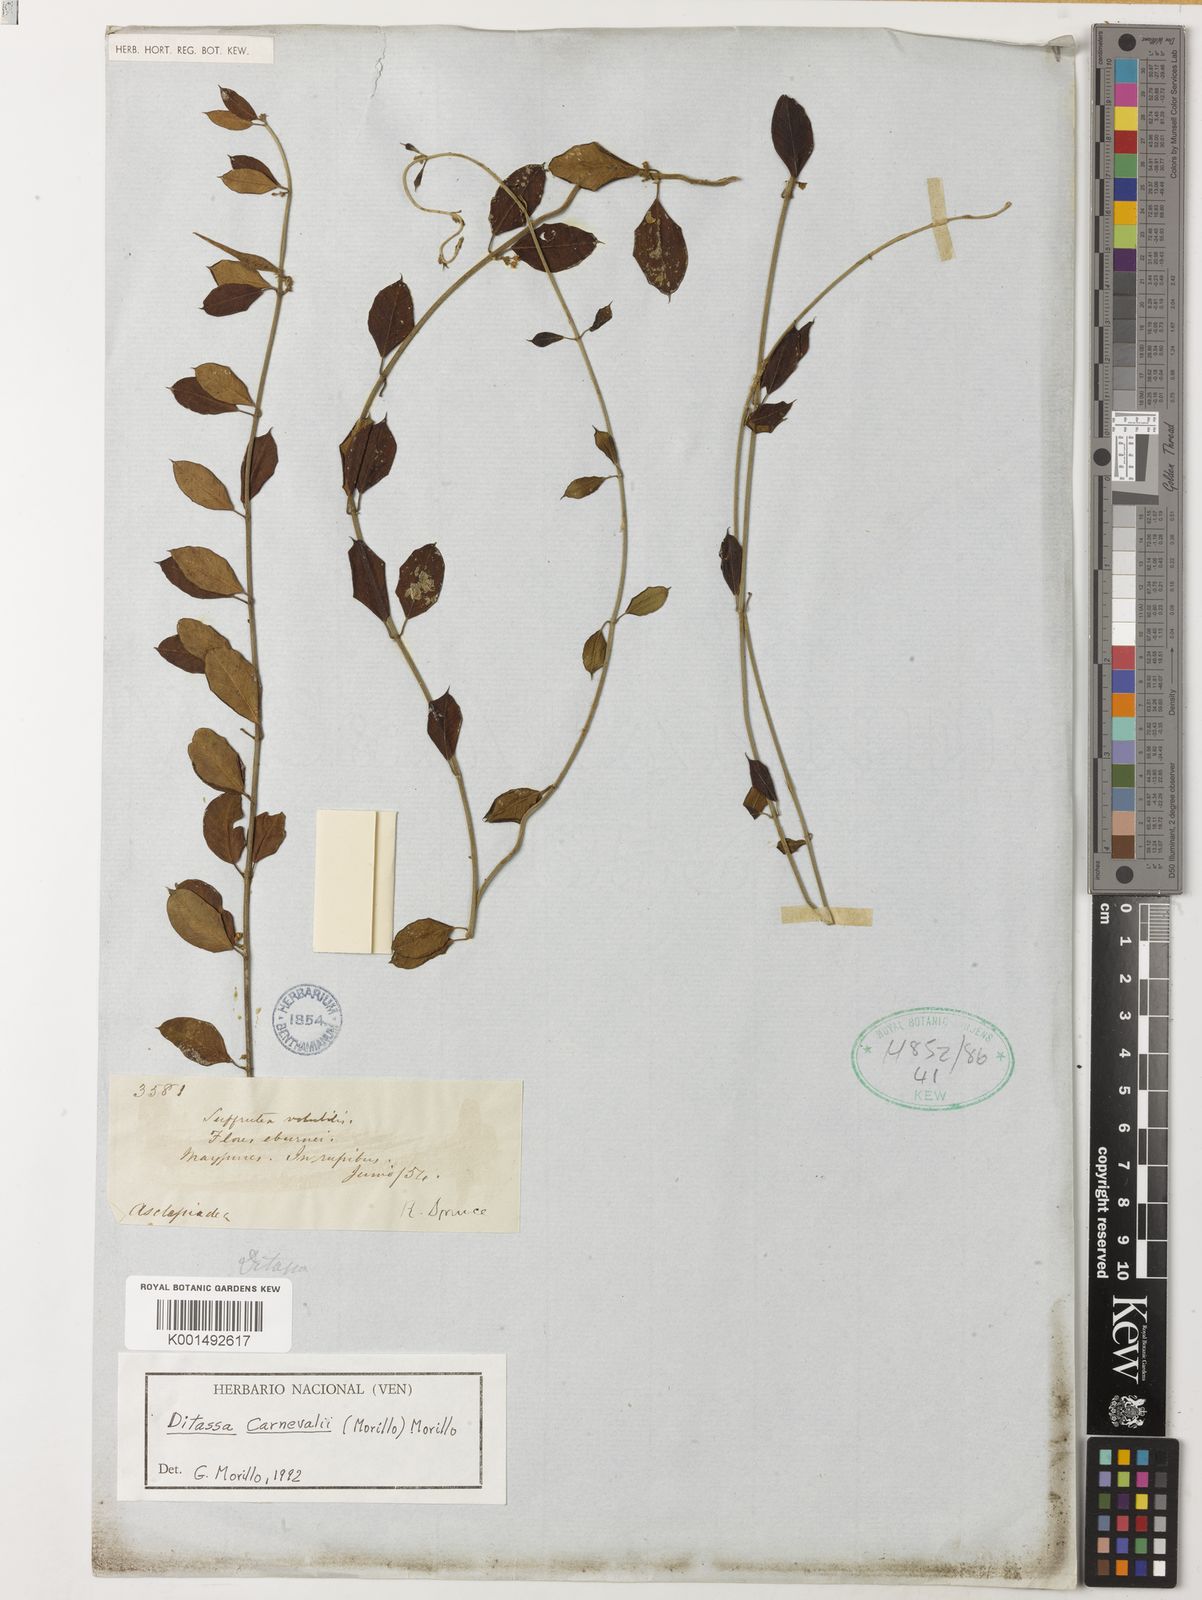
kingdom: Plantae
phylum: Tracheophyta
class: Magnoliopsida
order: Gentianales
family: Apocynaceae
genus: Ditassa
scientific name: Ditassa carnevalii
